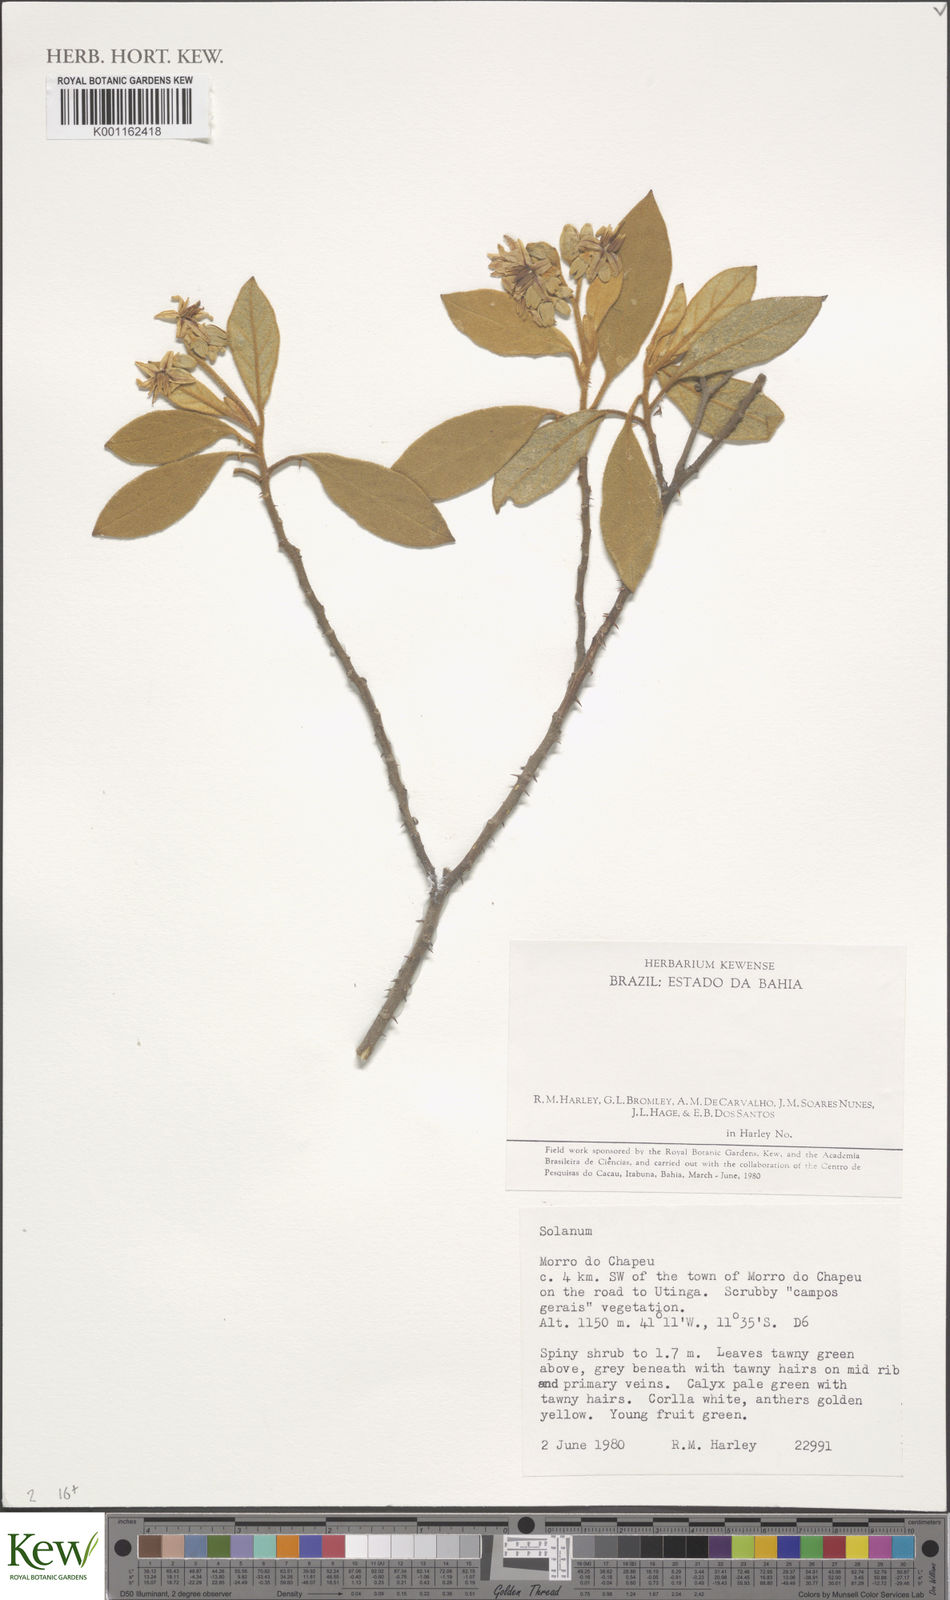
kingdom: Plantae
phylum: Tracheophyta
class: Magnoliopsida
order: Solanales
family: Solanaceae
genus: Solanum
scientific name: Solanum fernandesii
